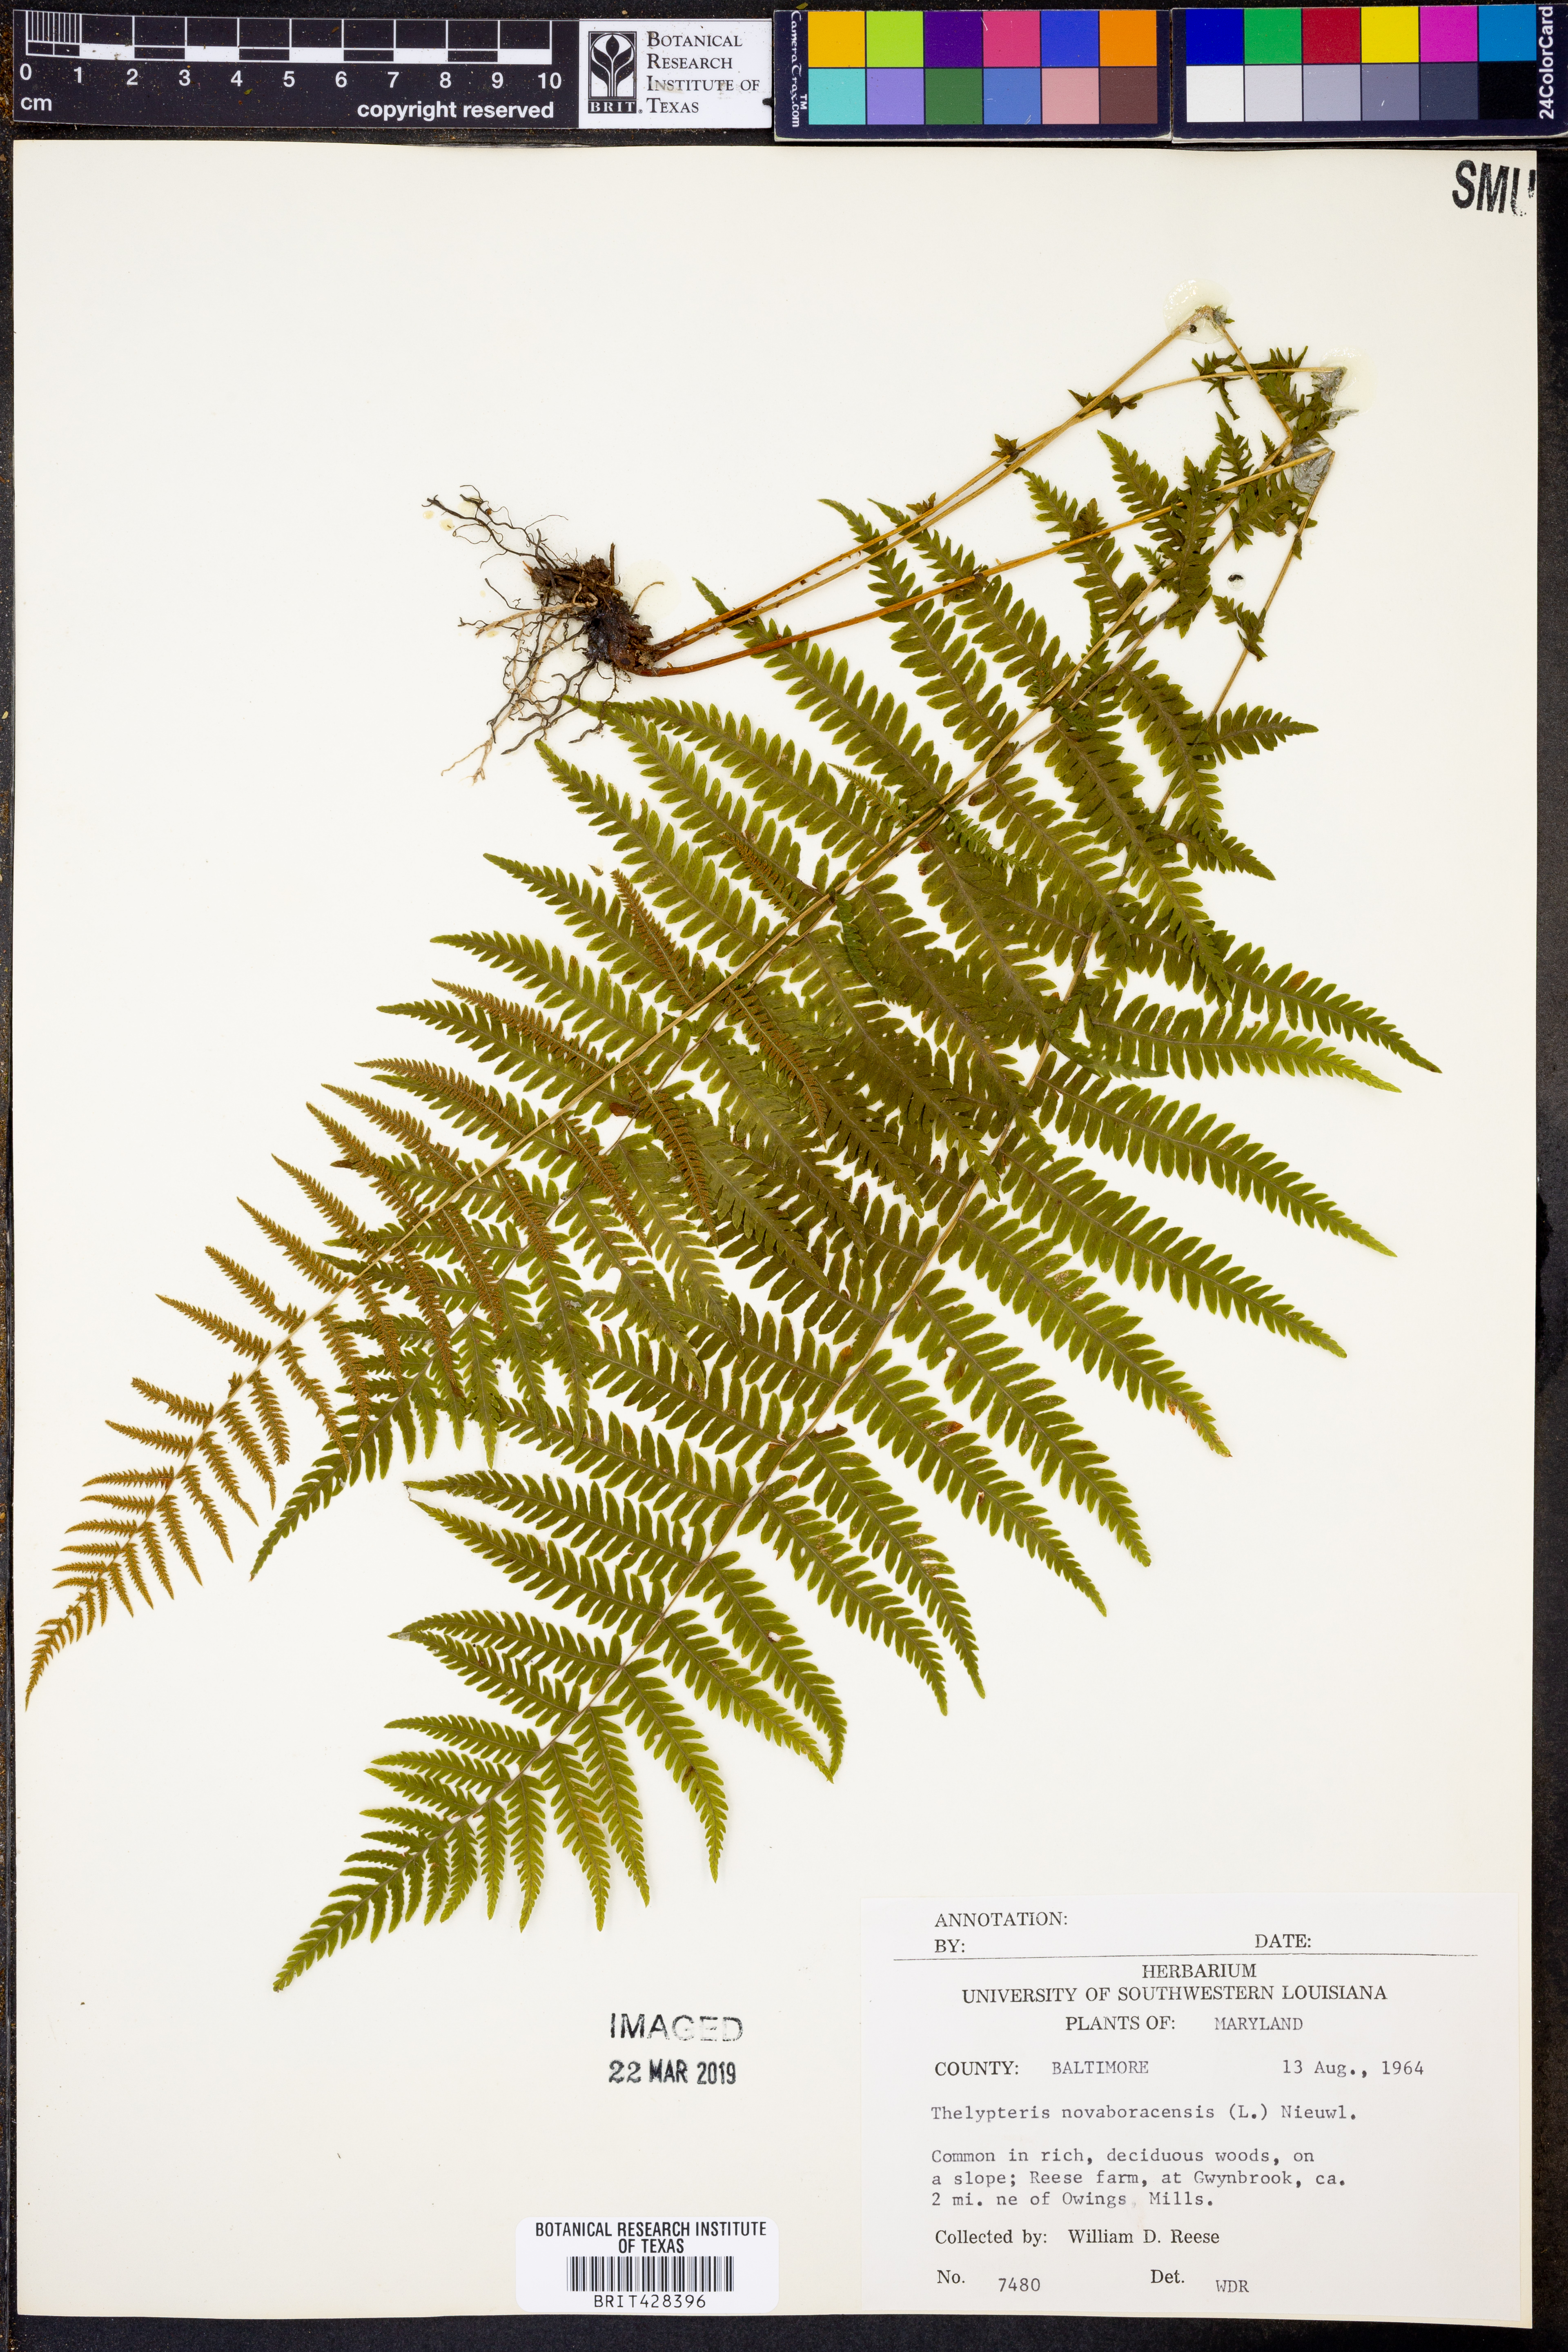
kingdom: Plantae
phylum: Tracheophyta
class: Polypodiopsida
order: Polypodiales
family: Thelypteridaceae
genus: Amauropelta
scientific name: Amauropelta noveboracensis
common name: New york fern
